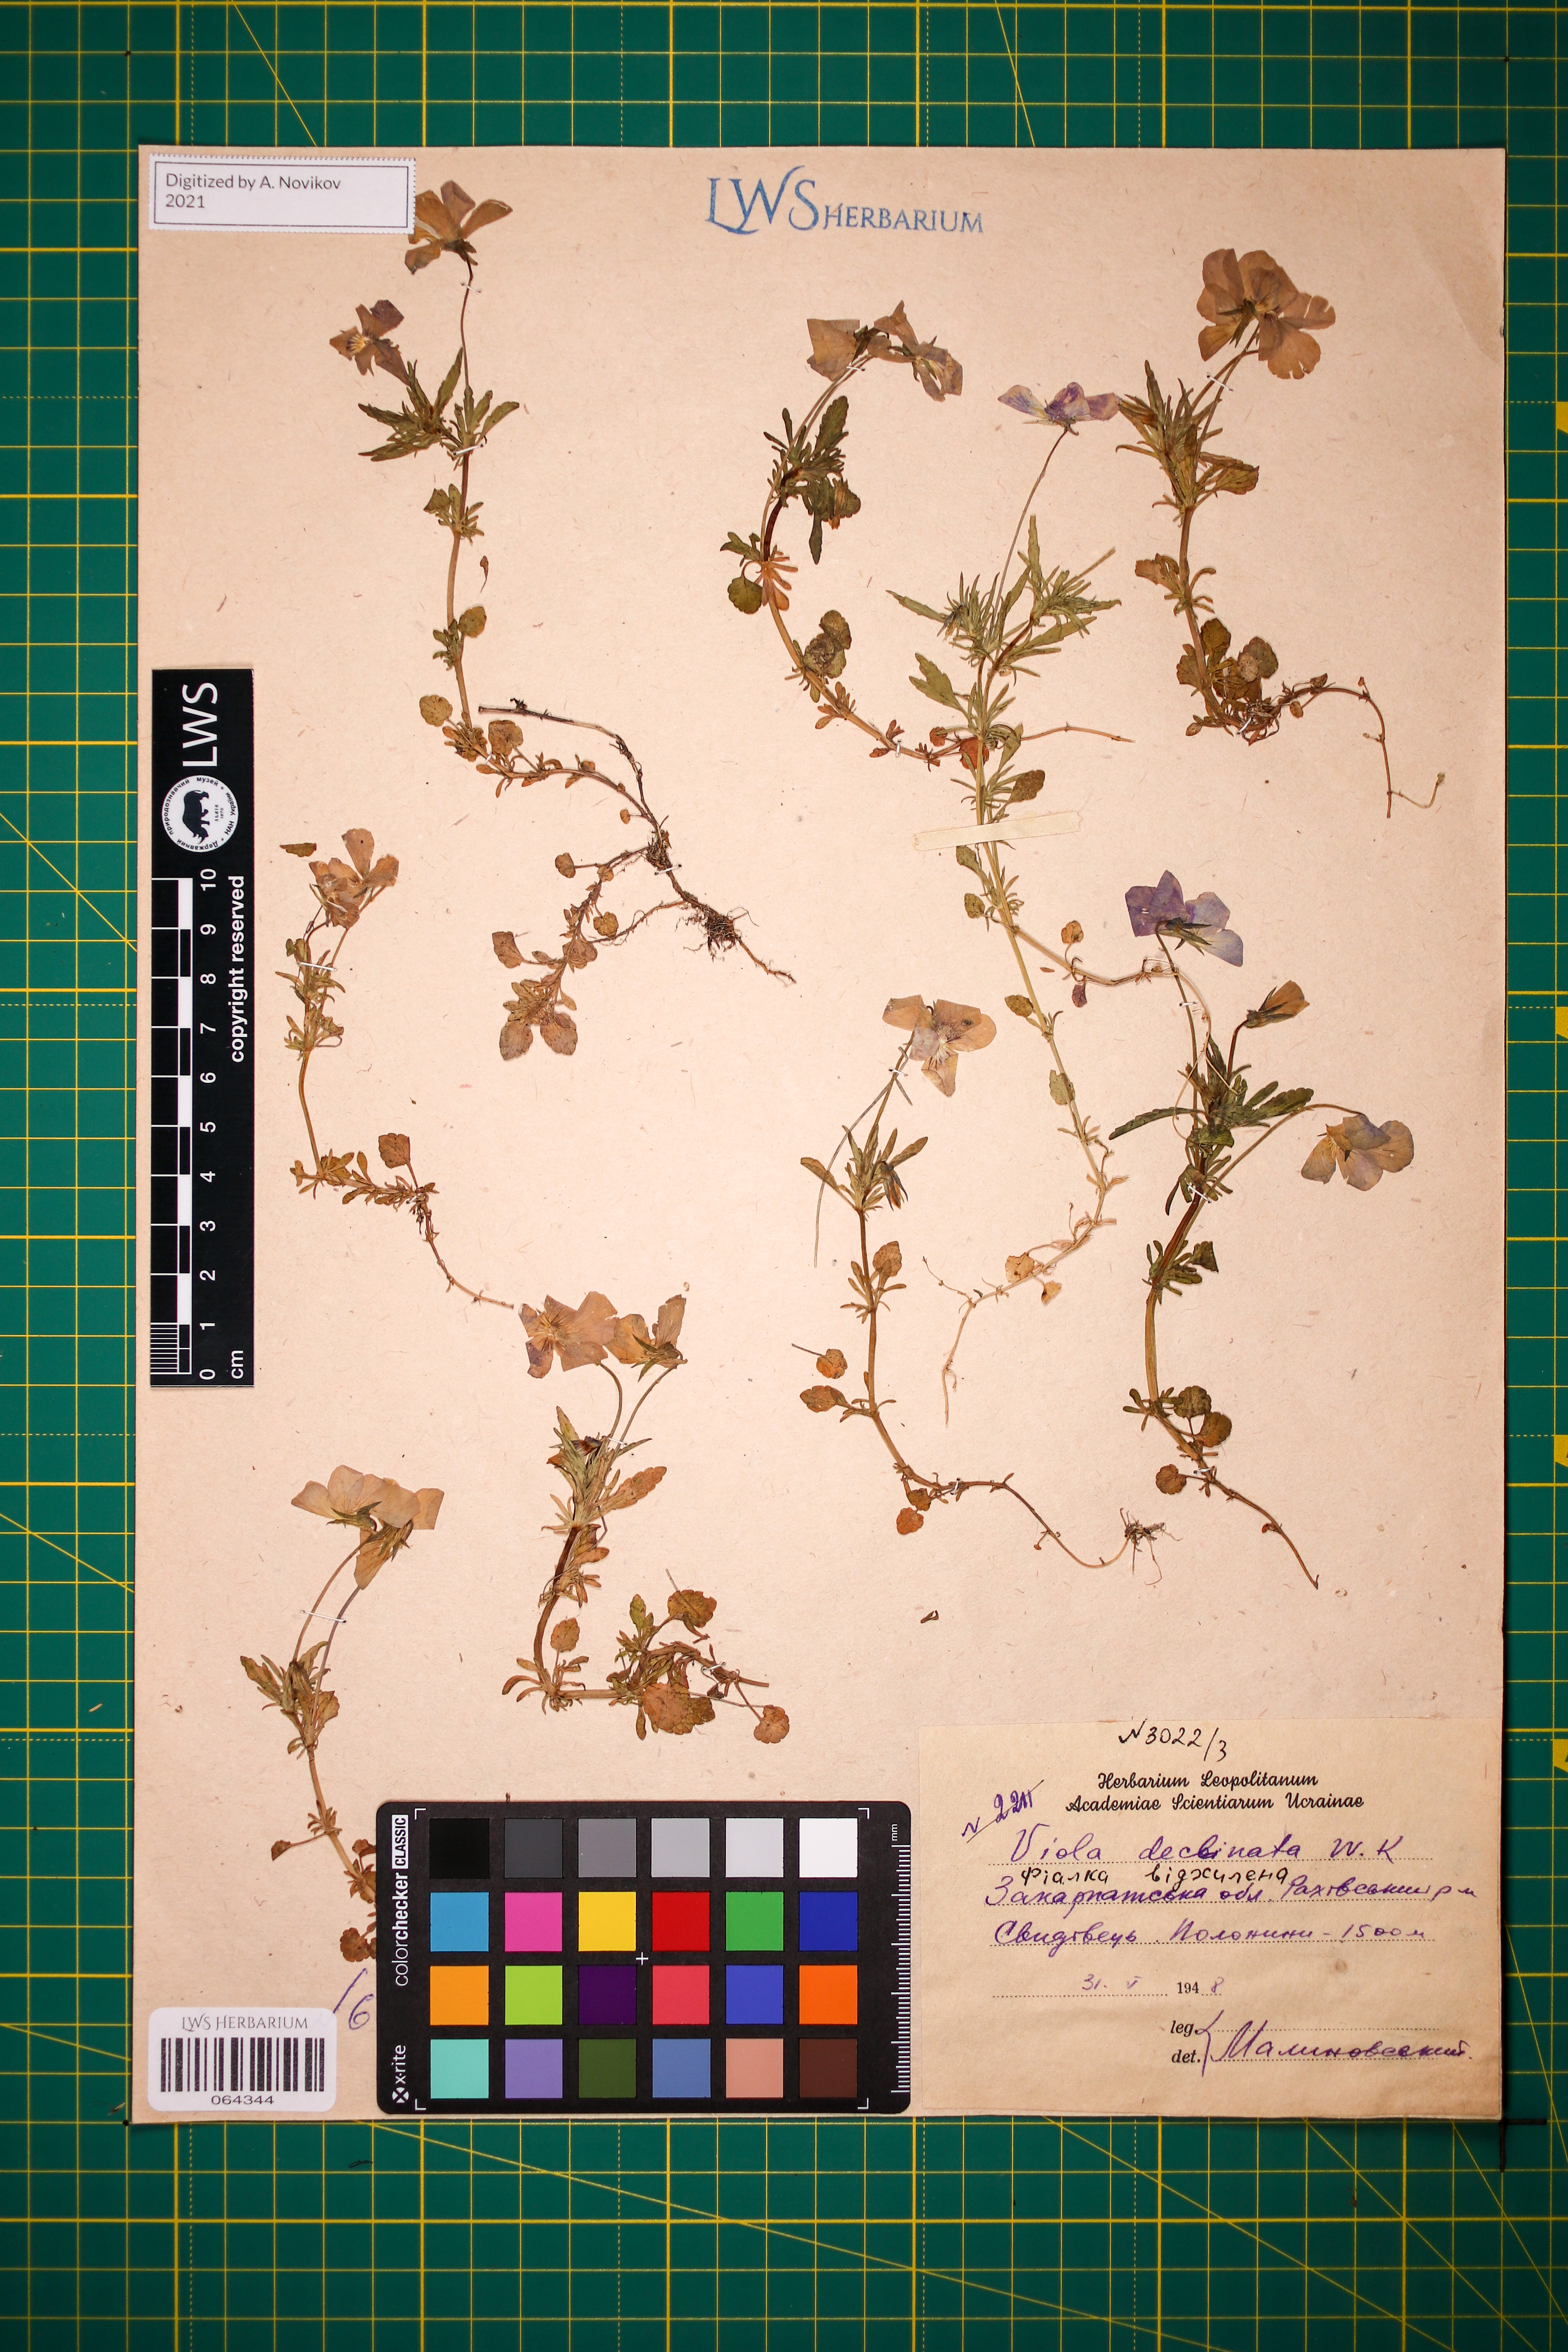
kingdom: Plantae
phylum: Tracheophyta
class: Magnoliopsida
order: Malpighiales
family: Violaceae
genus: Viola
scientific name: Viola declinata
